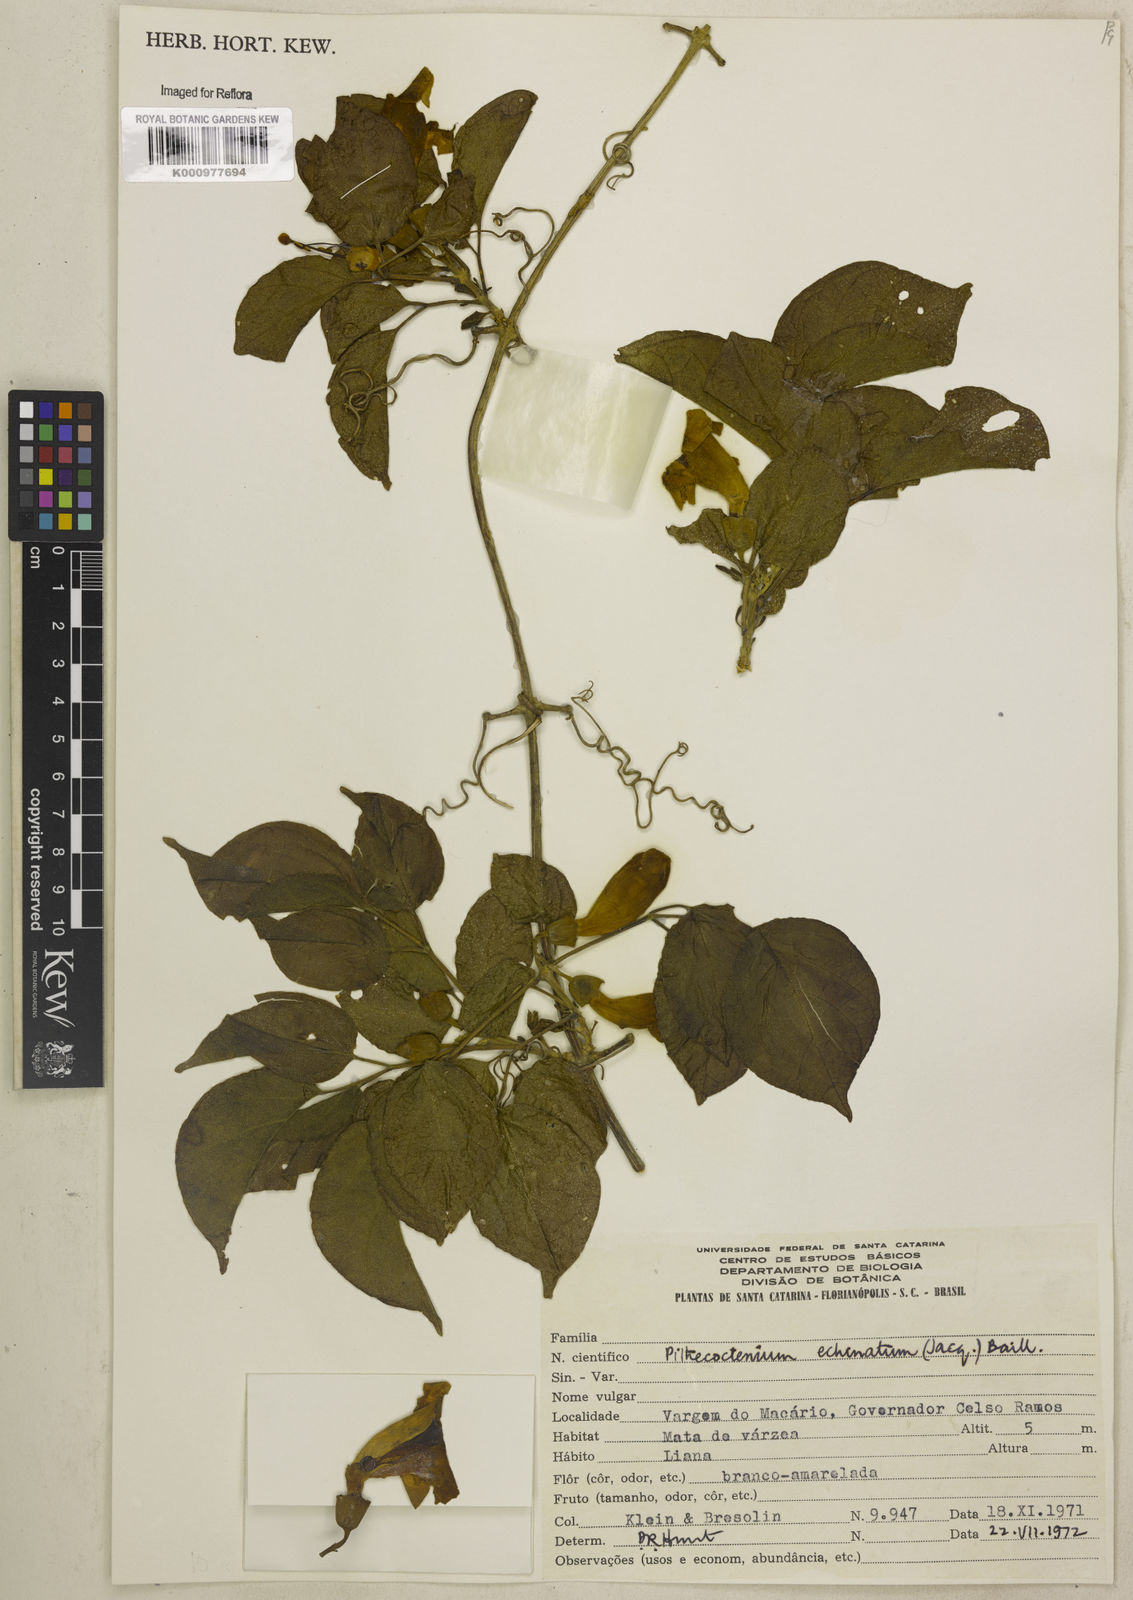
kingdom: Plantae
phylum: Tracheophyta
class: Magnoliopsida
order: Lamiales
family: Bignoniaceae
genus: Amphilophium
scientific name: Amphilophium crucigerum
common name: Monkey comb
